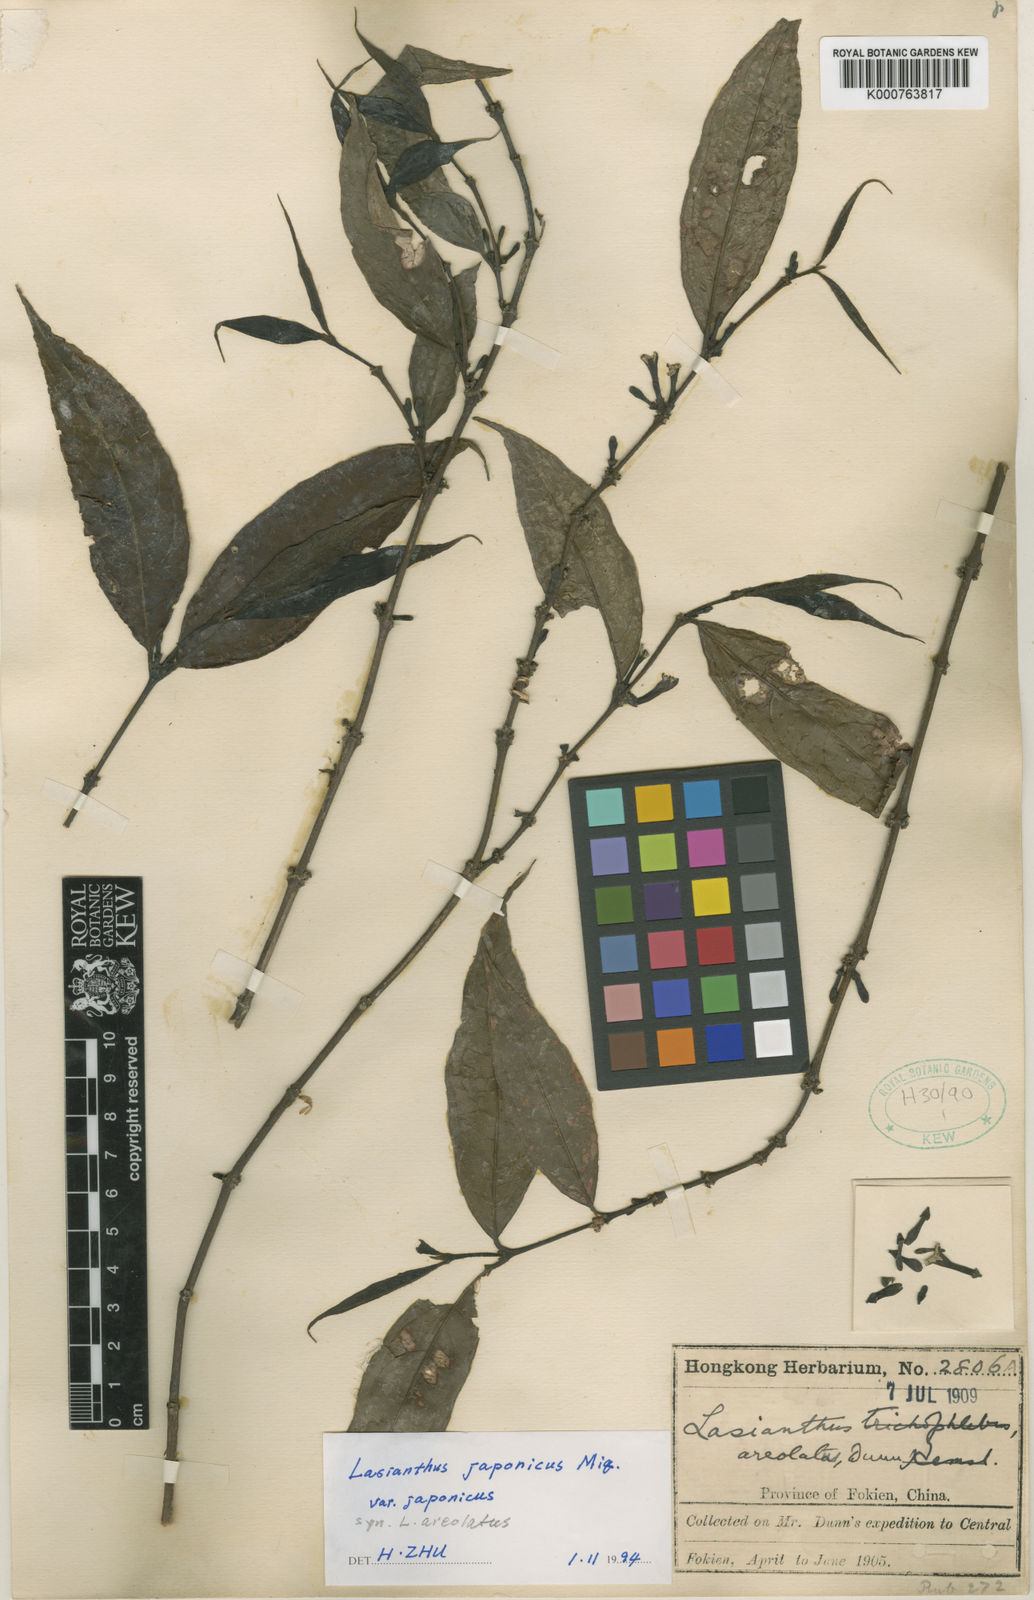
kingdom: Plantae
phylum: Tracheophyta
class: Magnoliopsida
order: Gentianales
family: Rubiaceae
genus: Lasianthus
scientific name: Lasianthus japonicus
